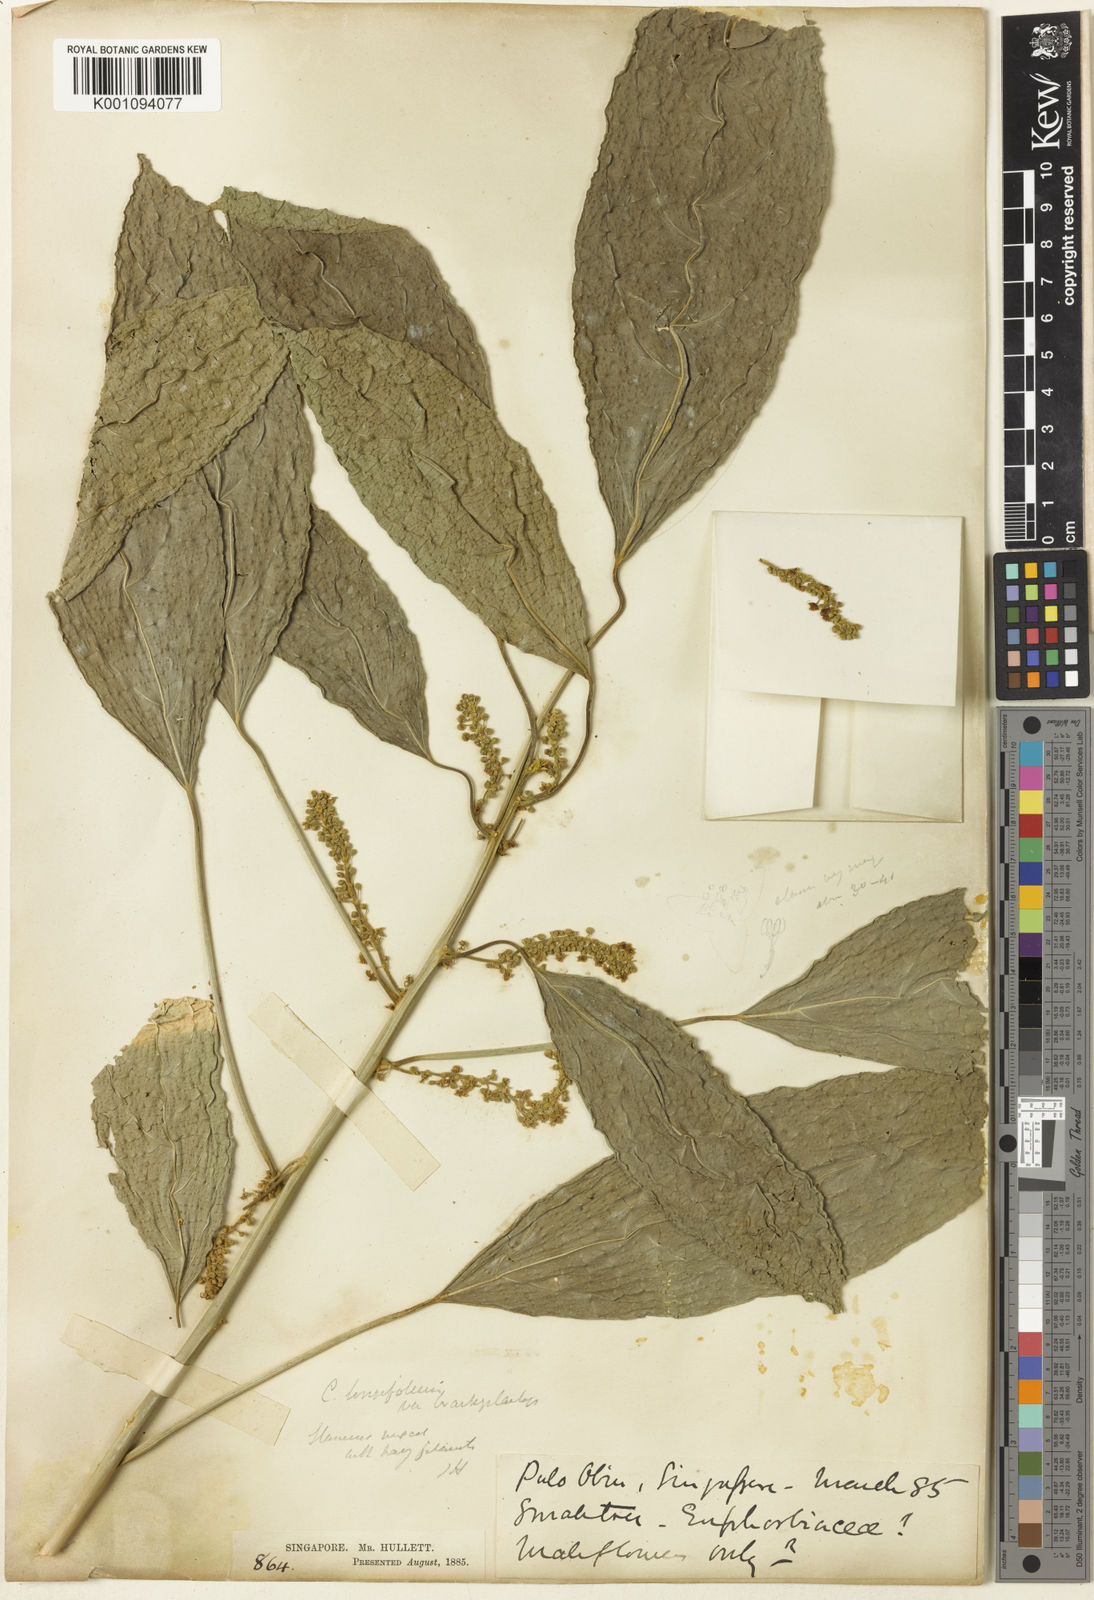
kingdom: Plantae
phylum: Tracheophyta
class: Magnoliopsida
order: Malpighiales
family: Euphorbiaceae
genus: Claoxylon
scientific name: Claoxylon longifolium
